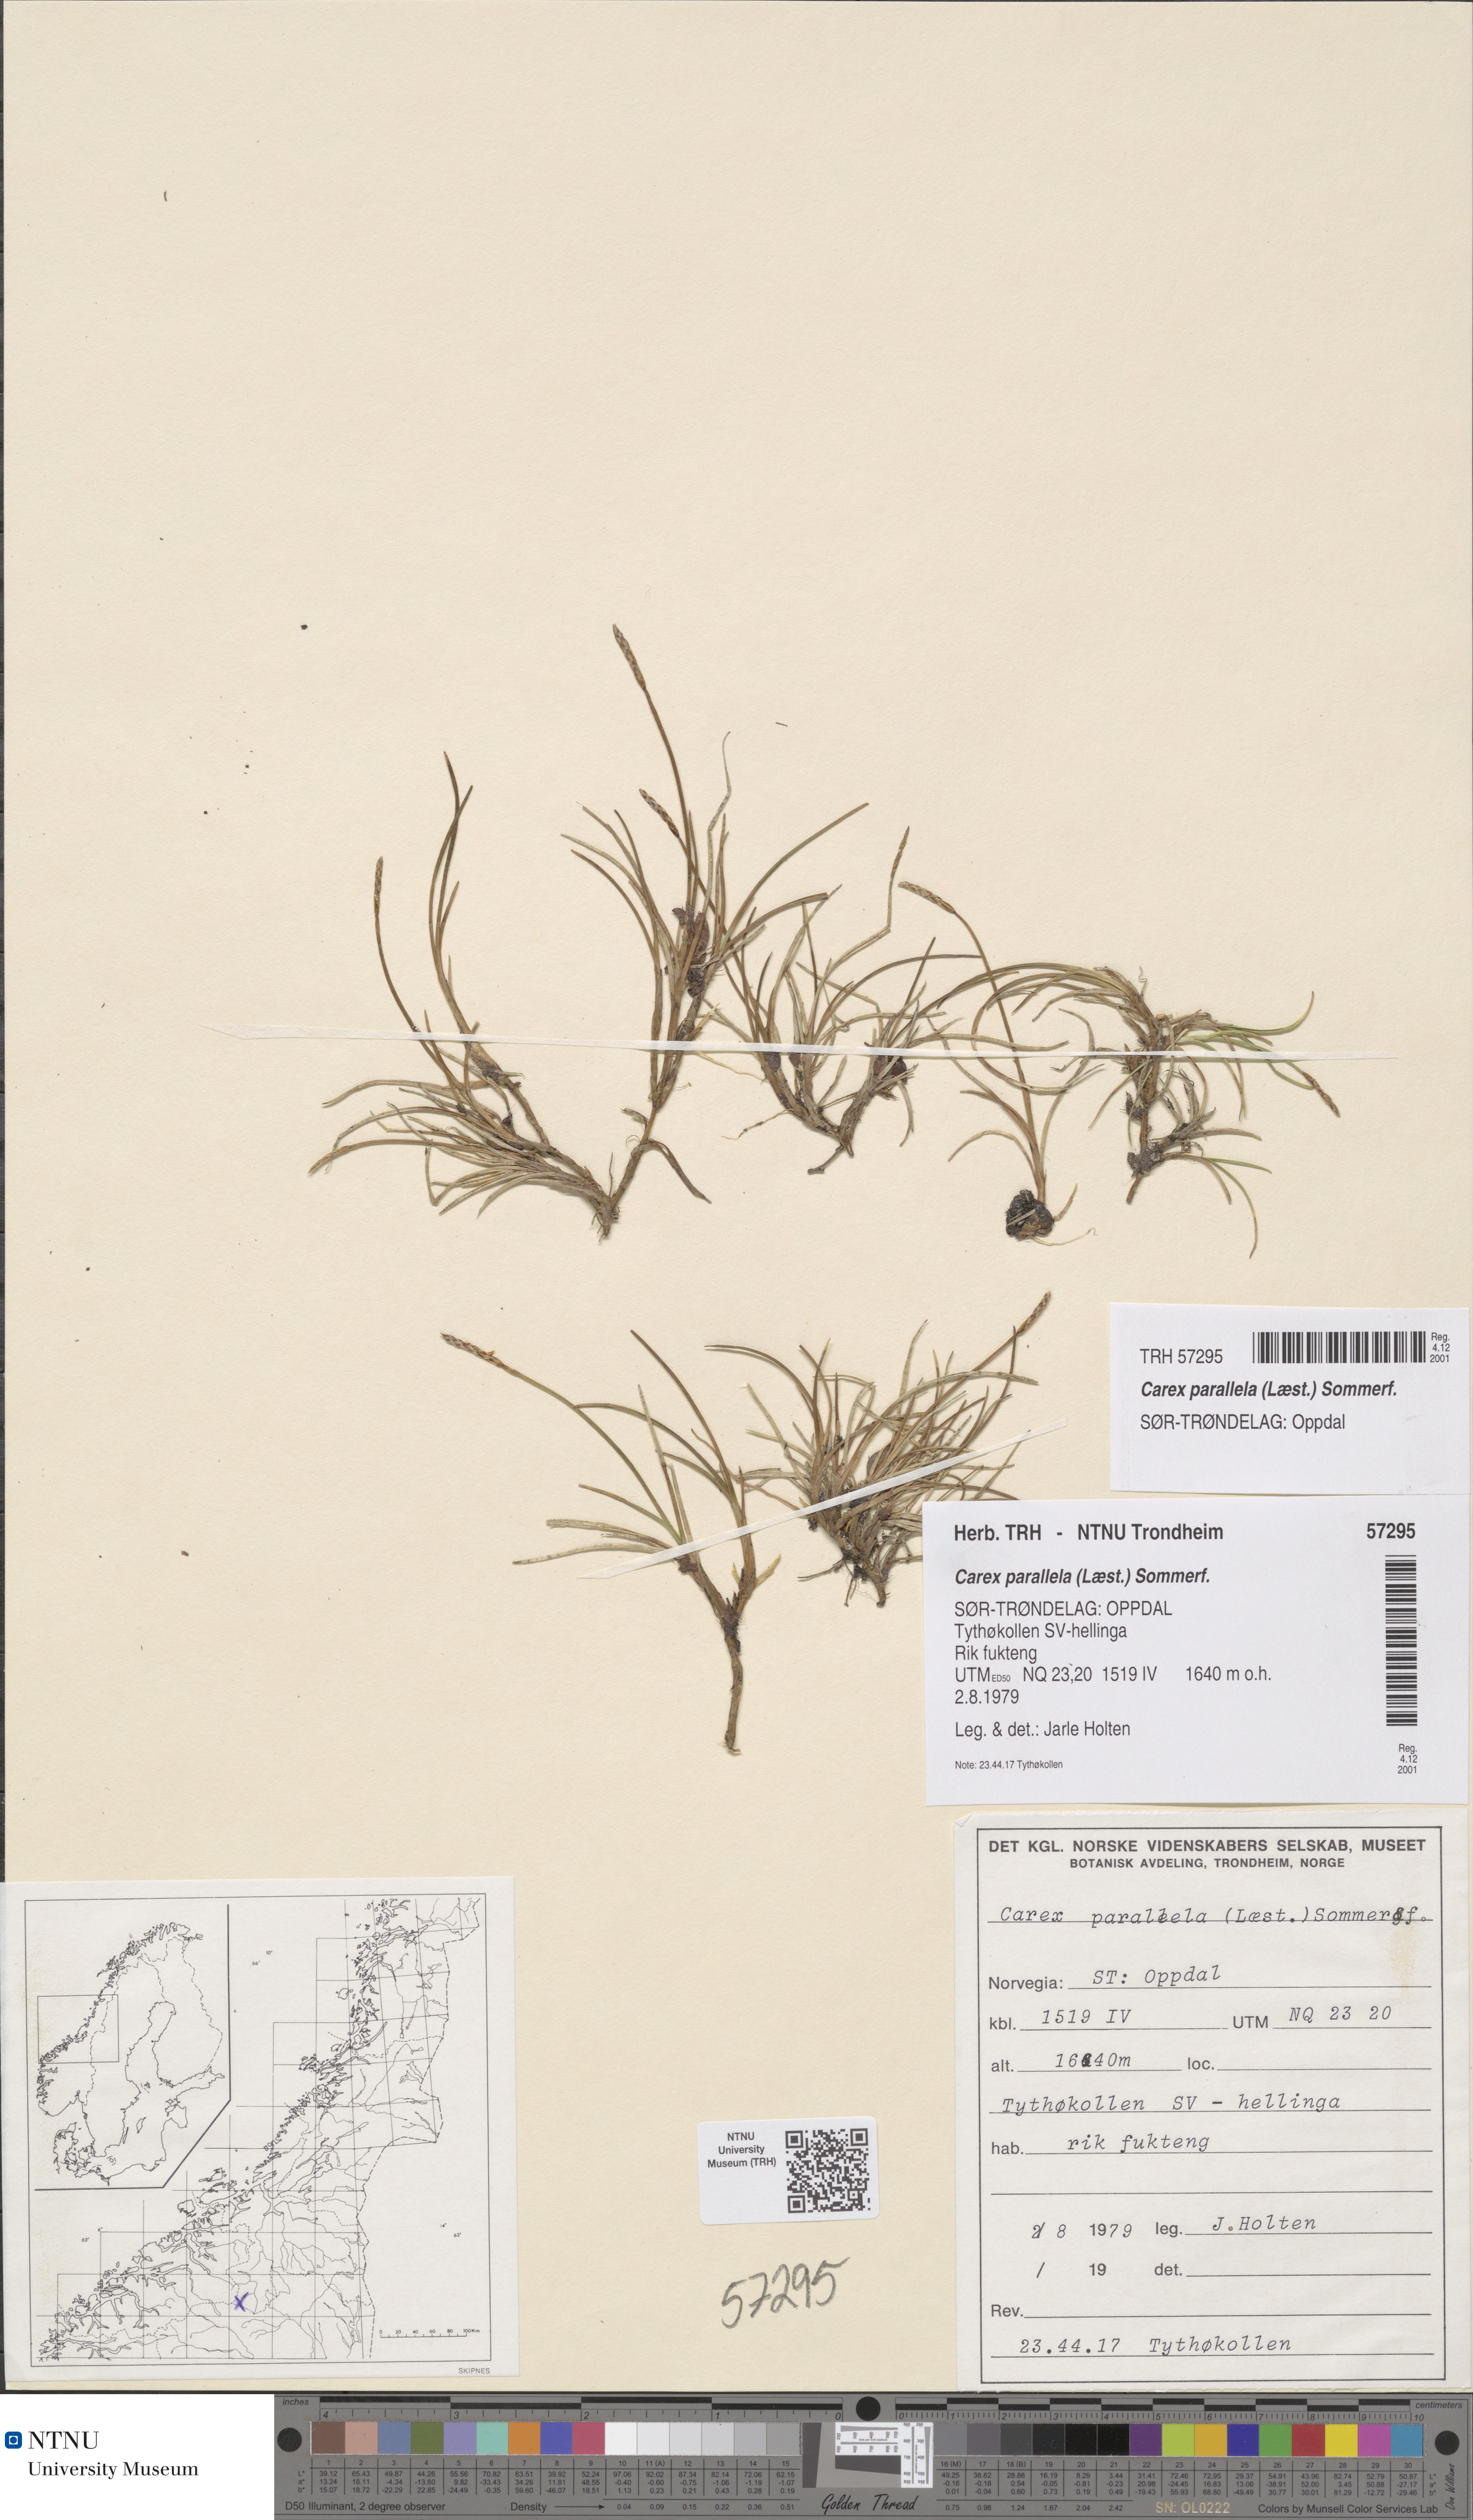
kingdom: Plantae
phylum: Tracheophyta
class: Liliopsida
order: Poales
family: Cyperaceae
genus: Carex
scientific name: Carex parallela
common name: Parallel sedge
